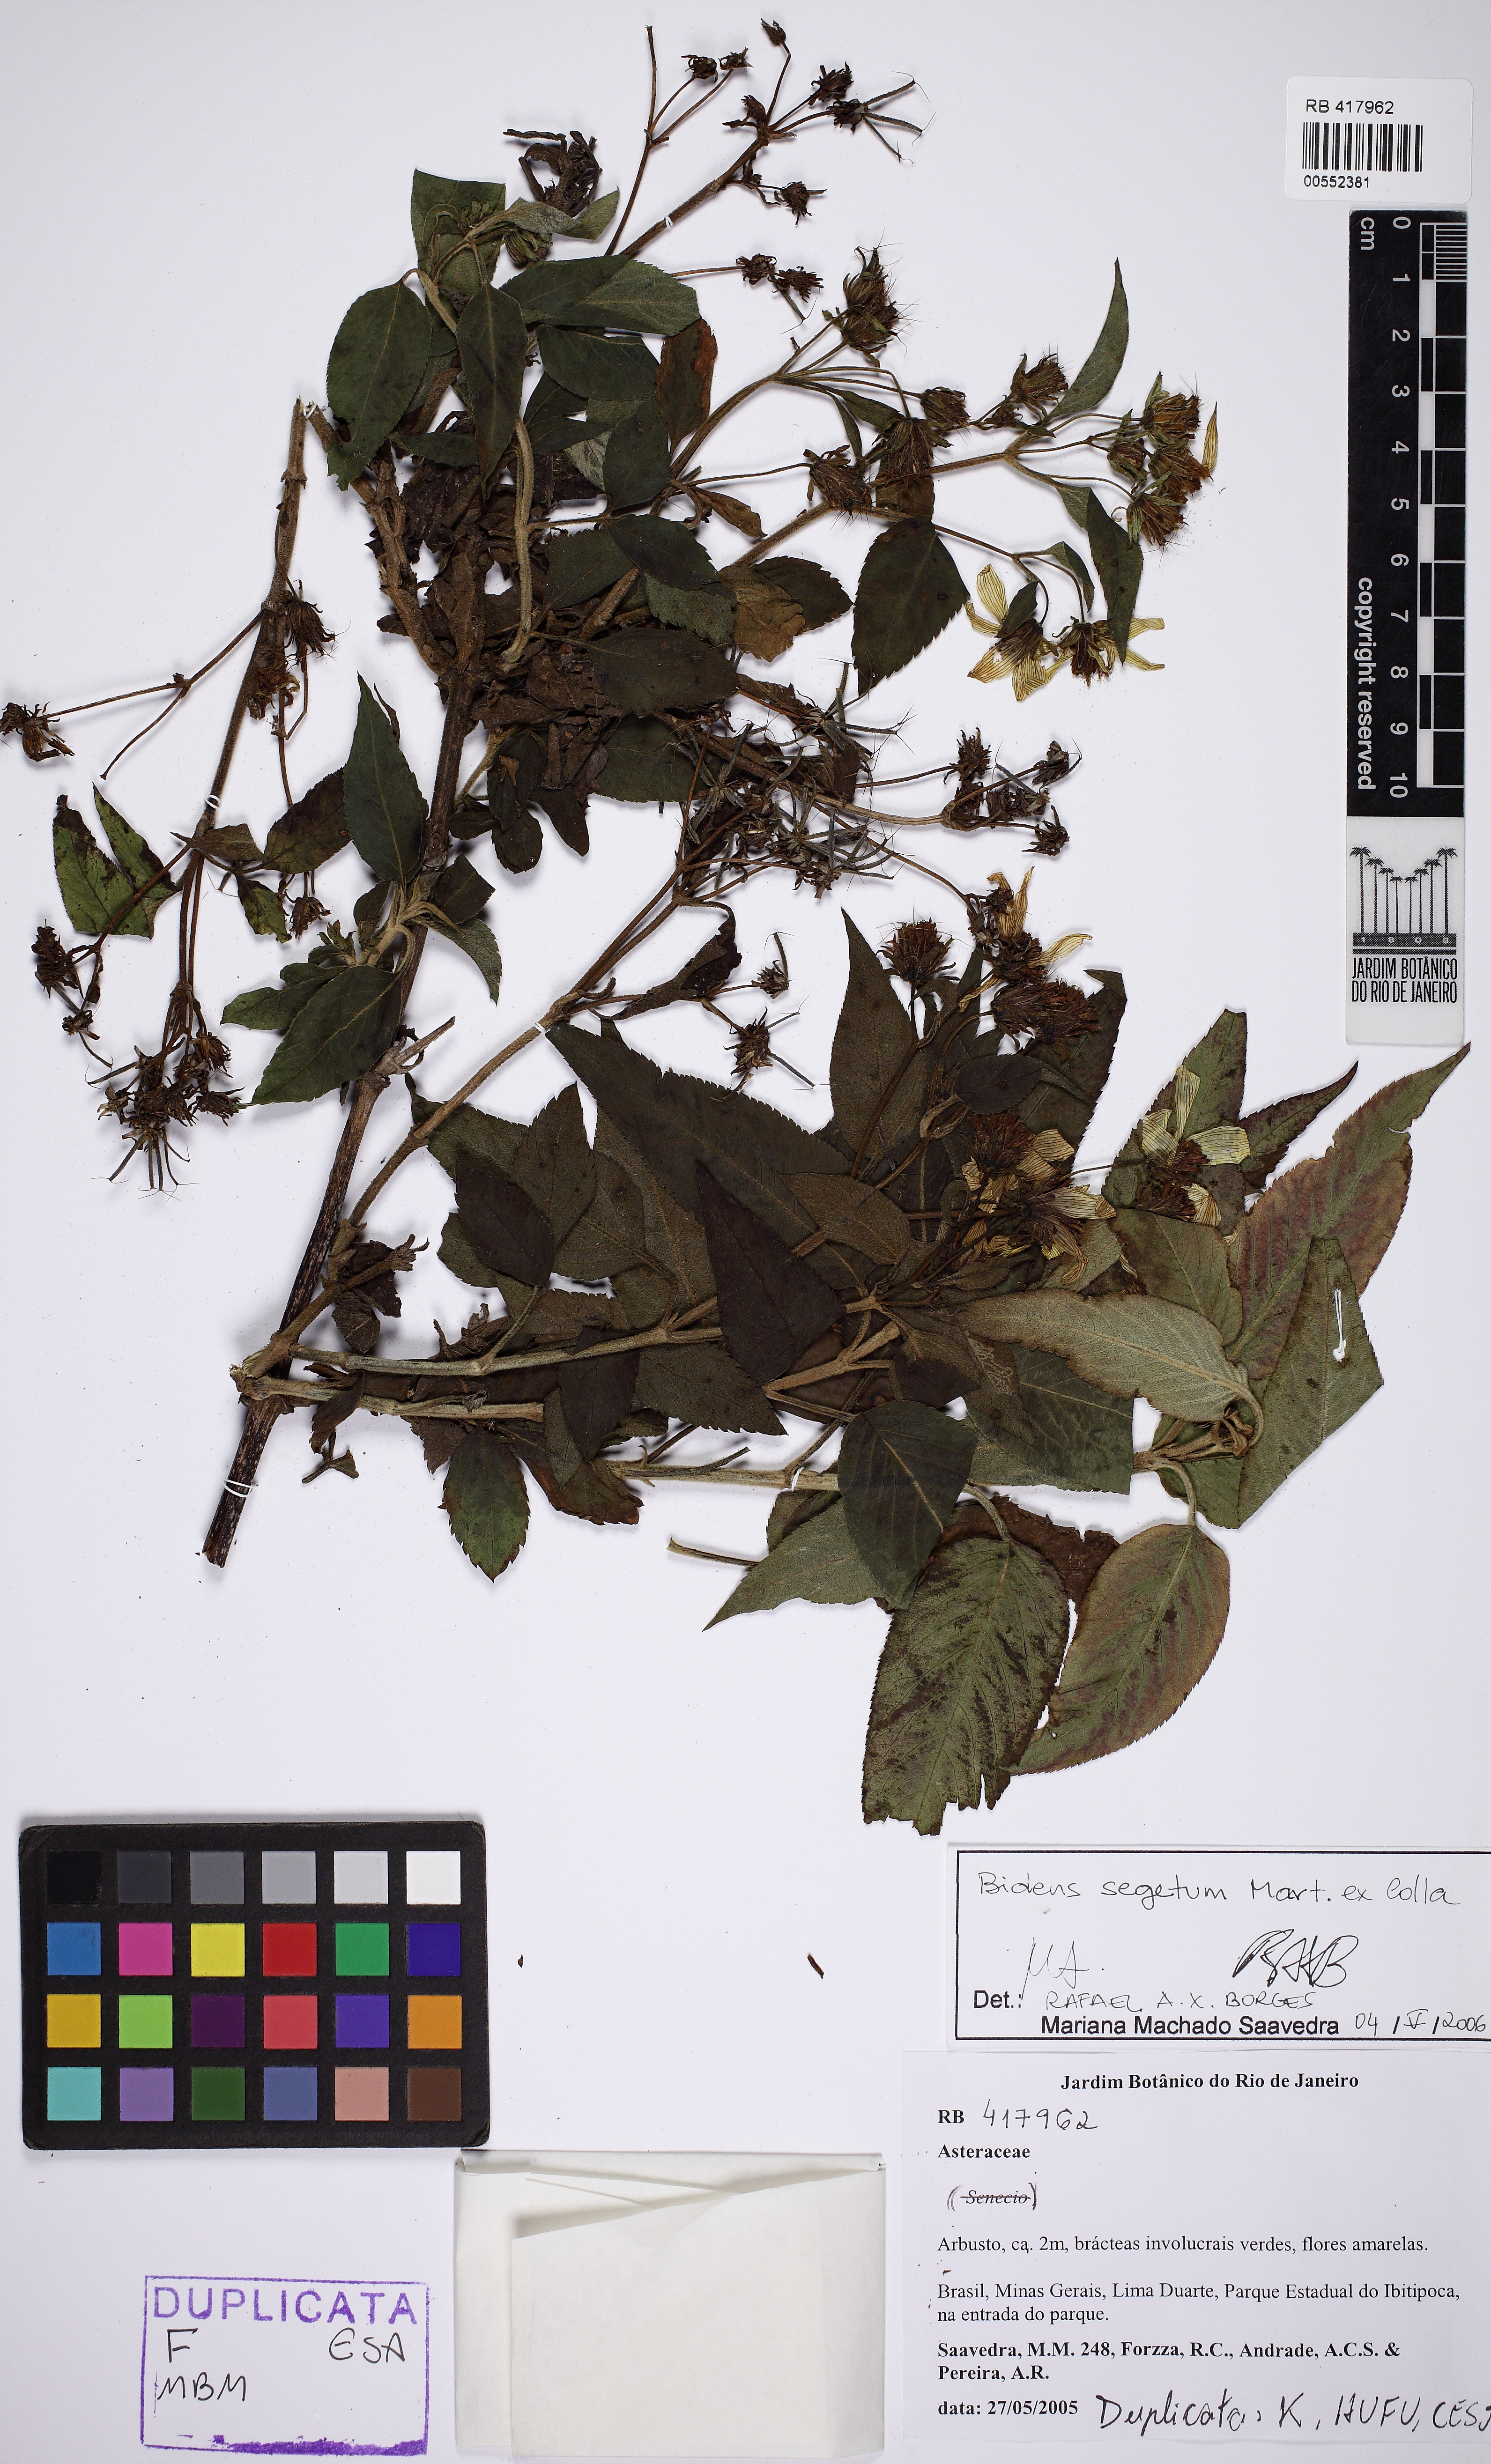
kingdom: Plantae
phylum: Tracheophyta
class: Magnoliopsida
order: Asterales
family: Asteraceae
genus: Bidens
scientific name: Bidens segetum
